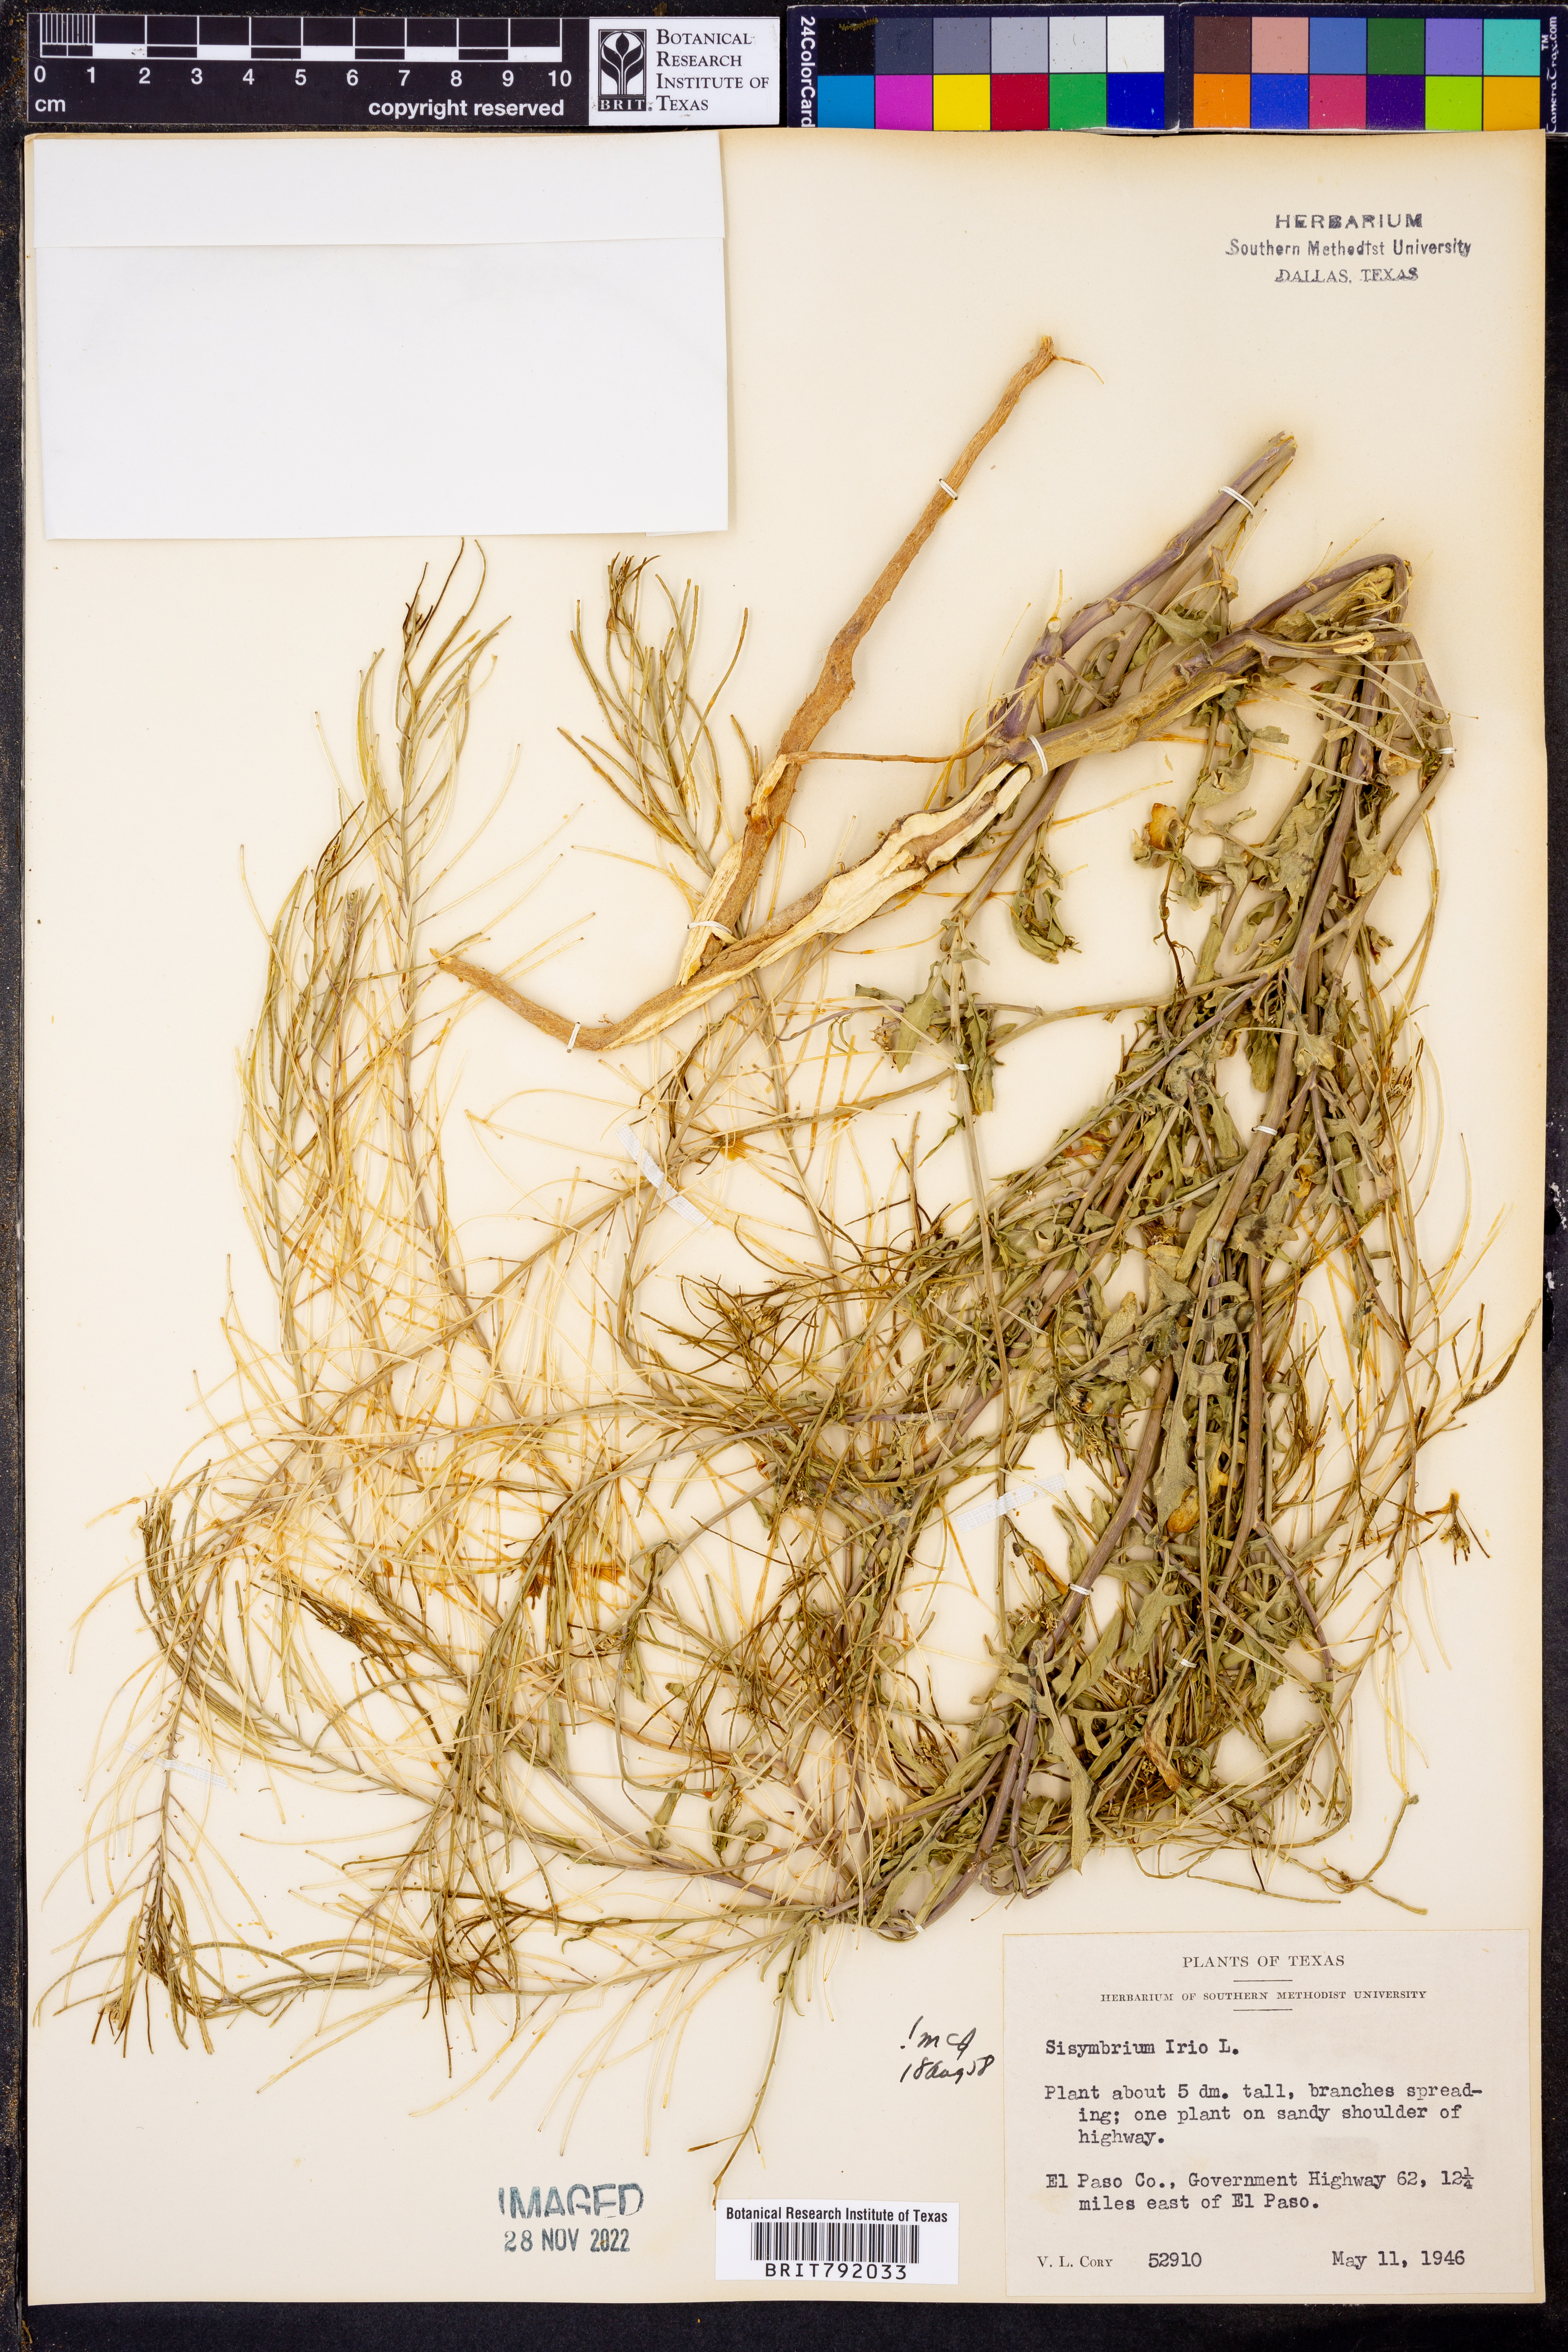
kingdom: Plantae
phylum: Tracheophyta
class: Magnoliopsida
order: Brassicales
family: Brassicaceae
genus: Sisymbrium
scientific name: Sisymbrium irio
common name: London rocket
